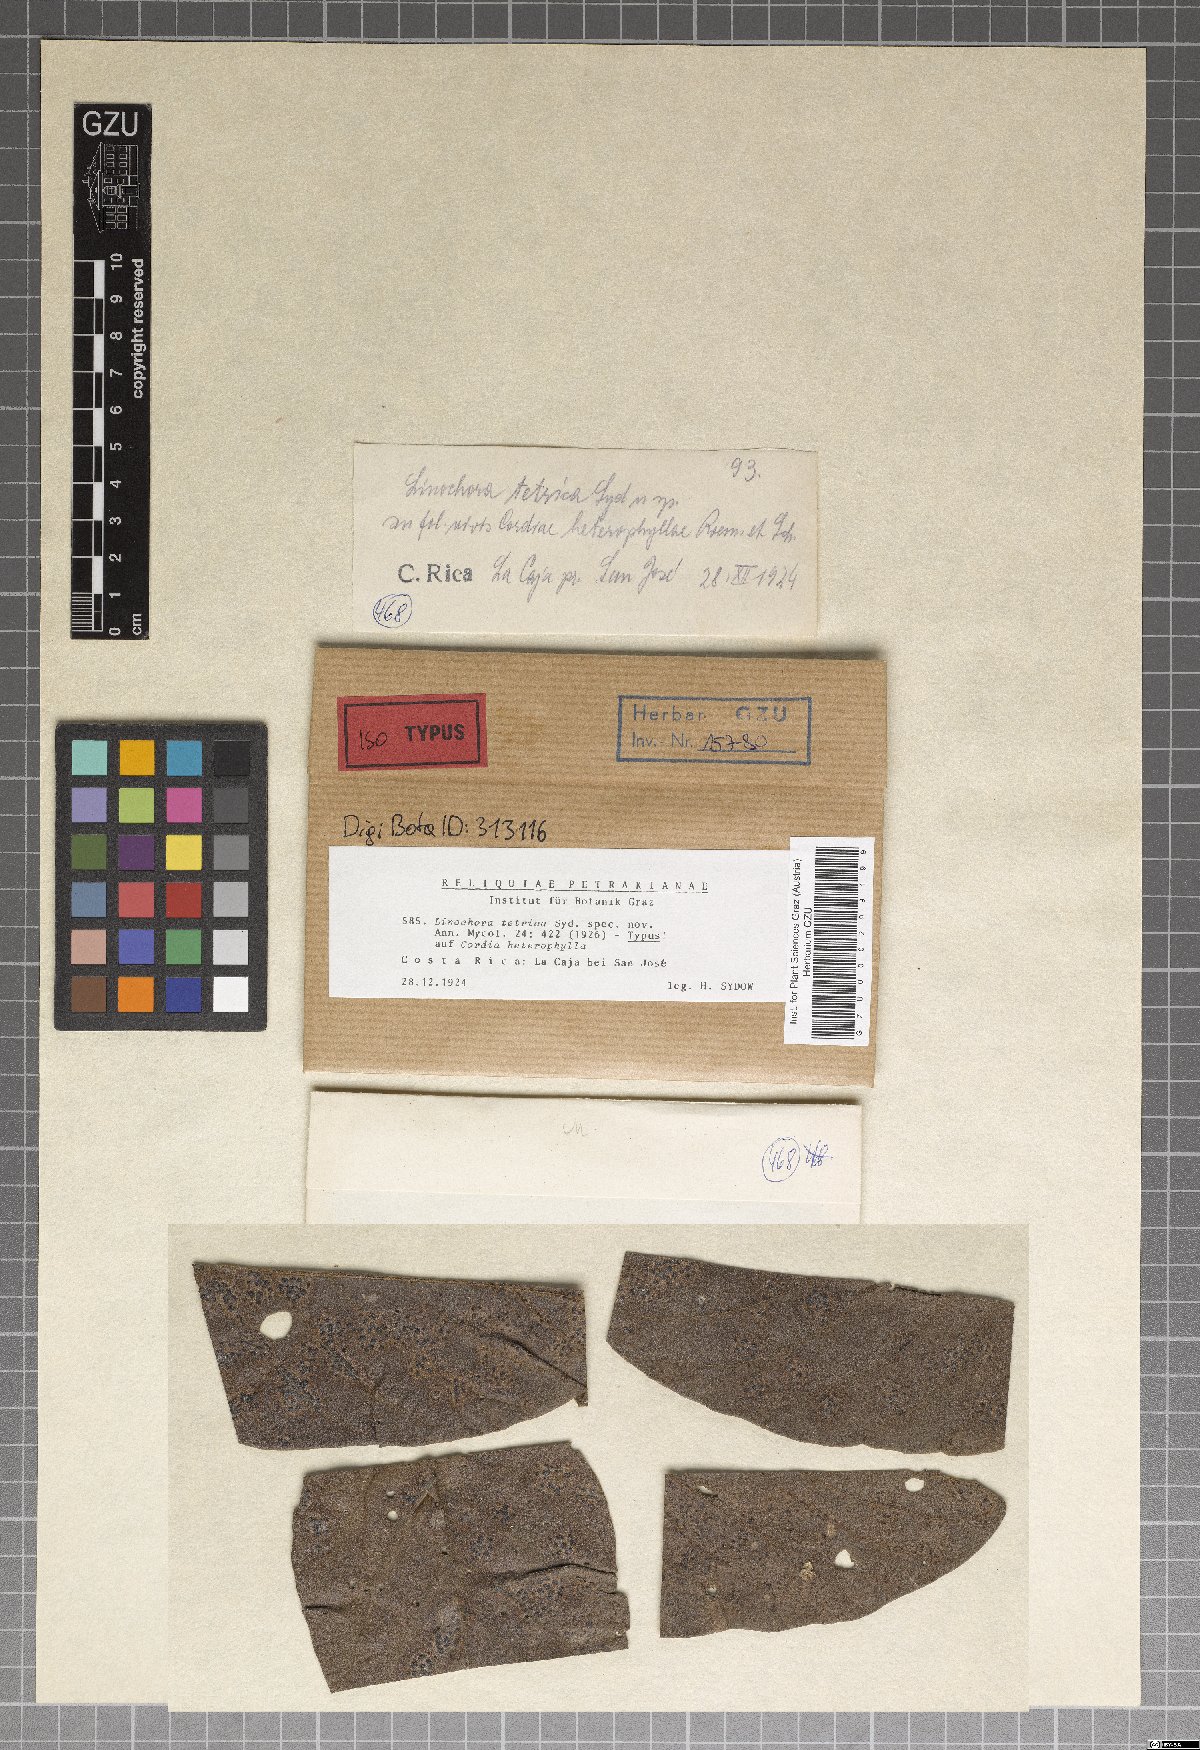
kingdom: Fungi
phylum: Ascomycota
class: Sordariomycetes
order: Phyllachorales
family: Phyllachoraceae
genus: Ophiodothella
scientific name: Ophiodothella panamensis
